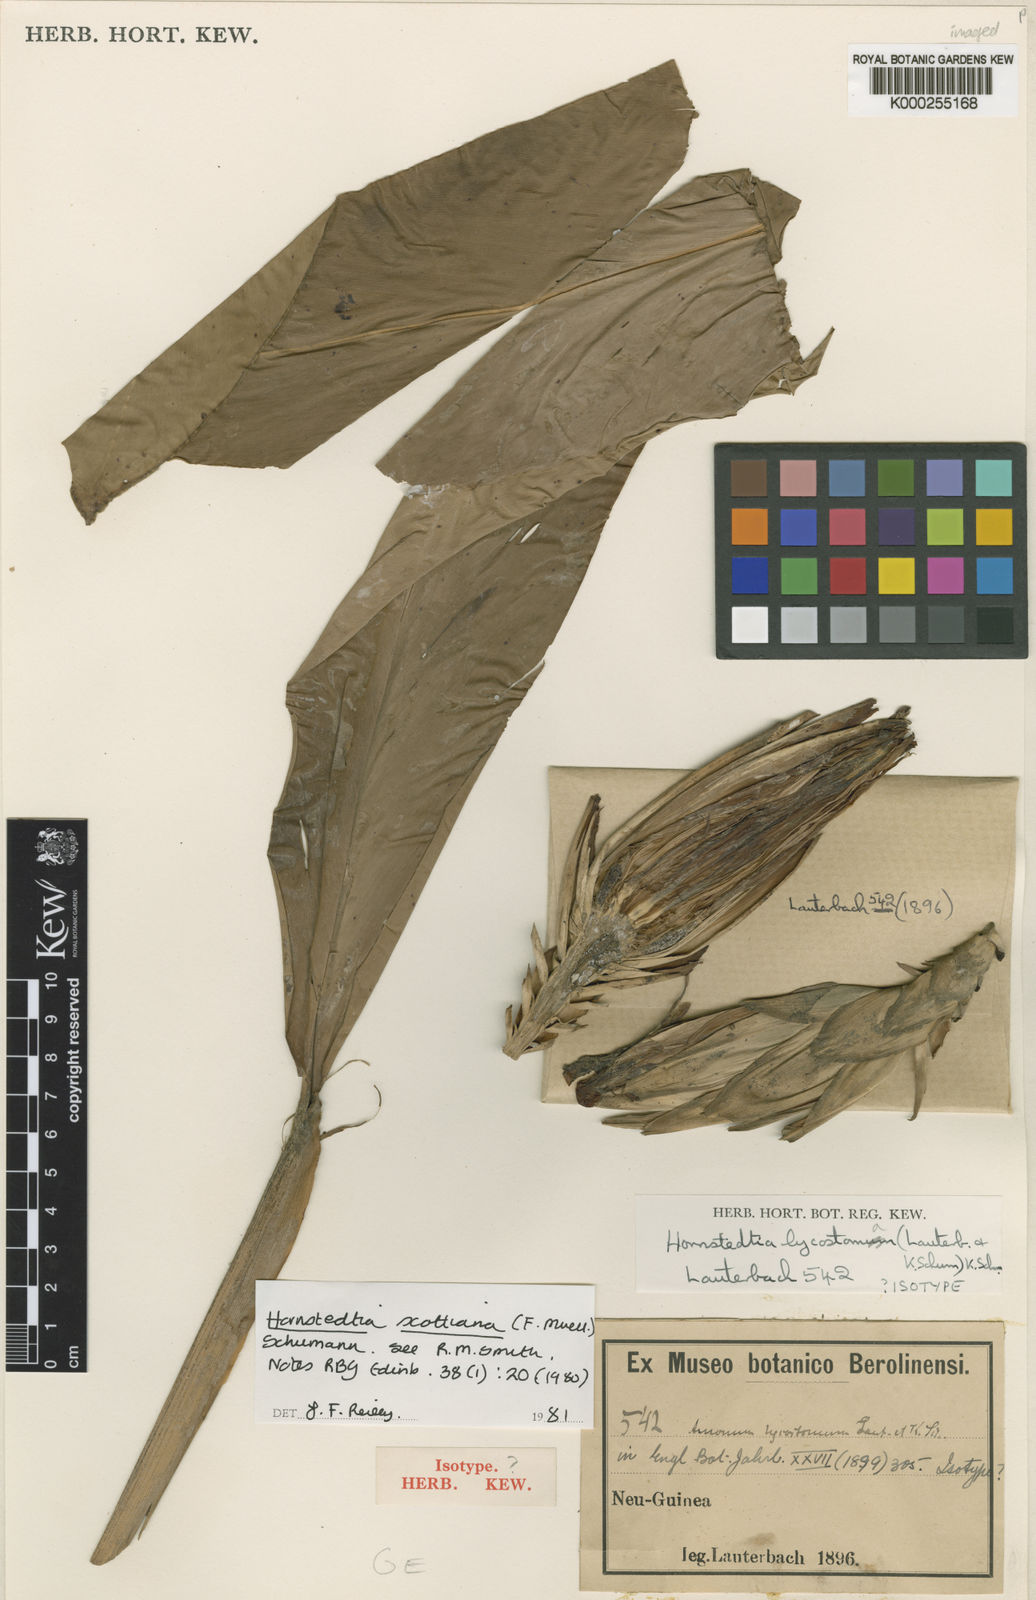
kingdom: Plantae
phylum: Tracheophyta
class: Liliopsida
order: Zingiberales
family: Zingiberaceae
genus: Hornstedtia
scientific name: Hornstedtia scottiana
